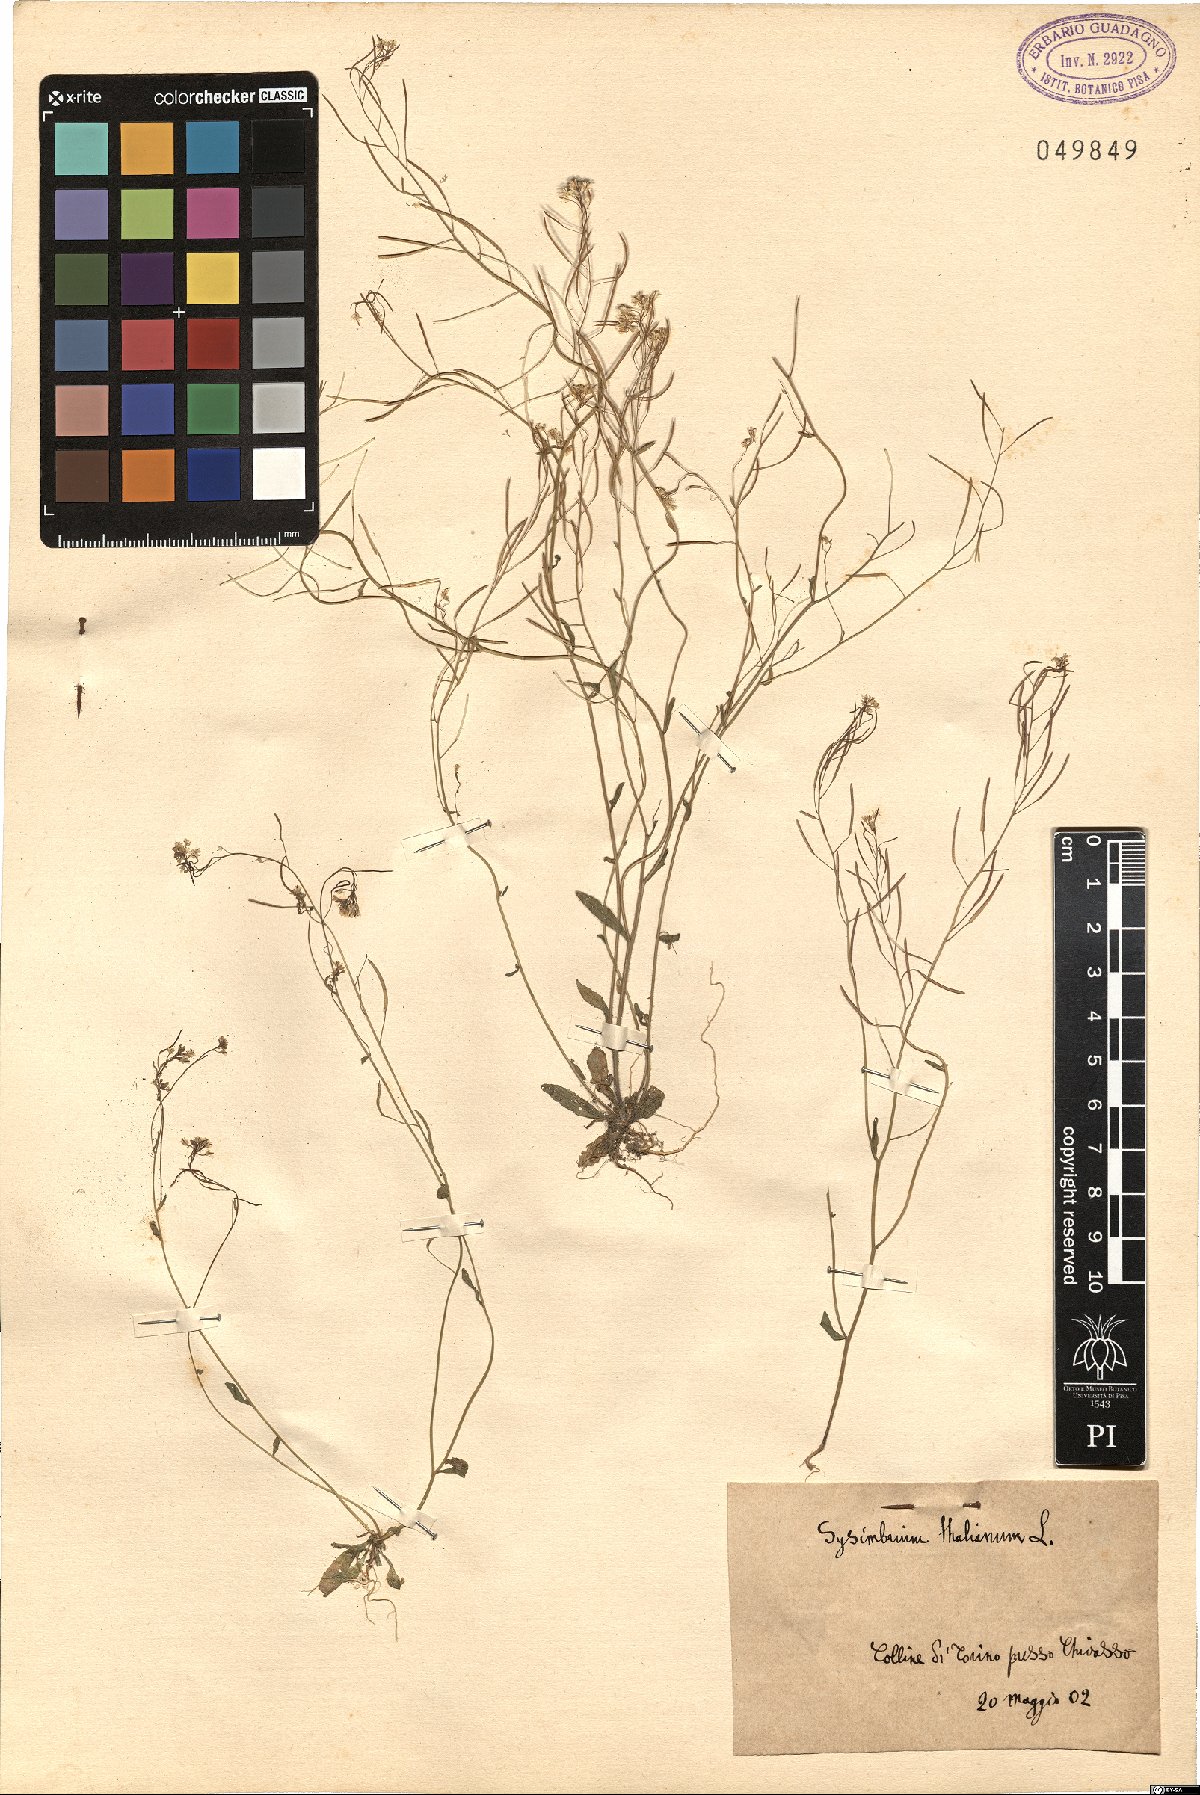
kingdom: Plantae
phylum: Tracheophyta
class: Magnoliopsida
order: Brassicales
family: Brassicaceae
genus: Arabidopsis
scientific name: Arabidopsis thaliana
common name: Thale cress
